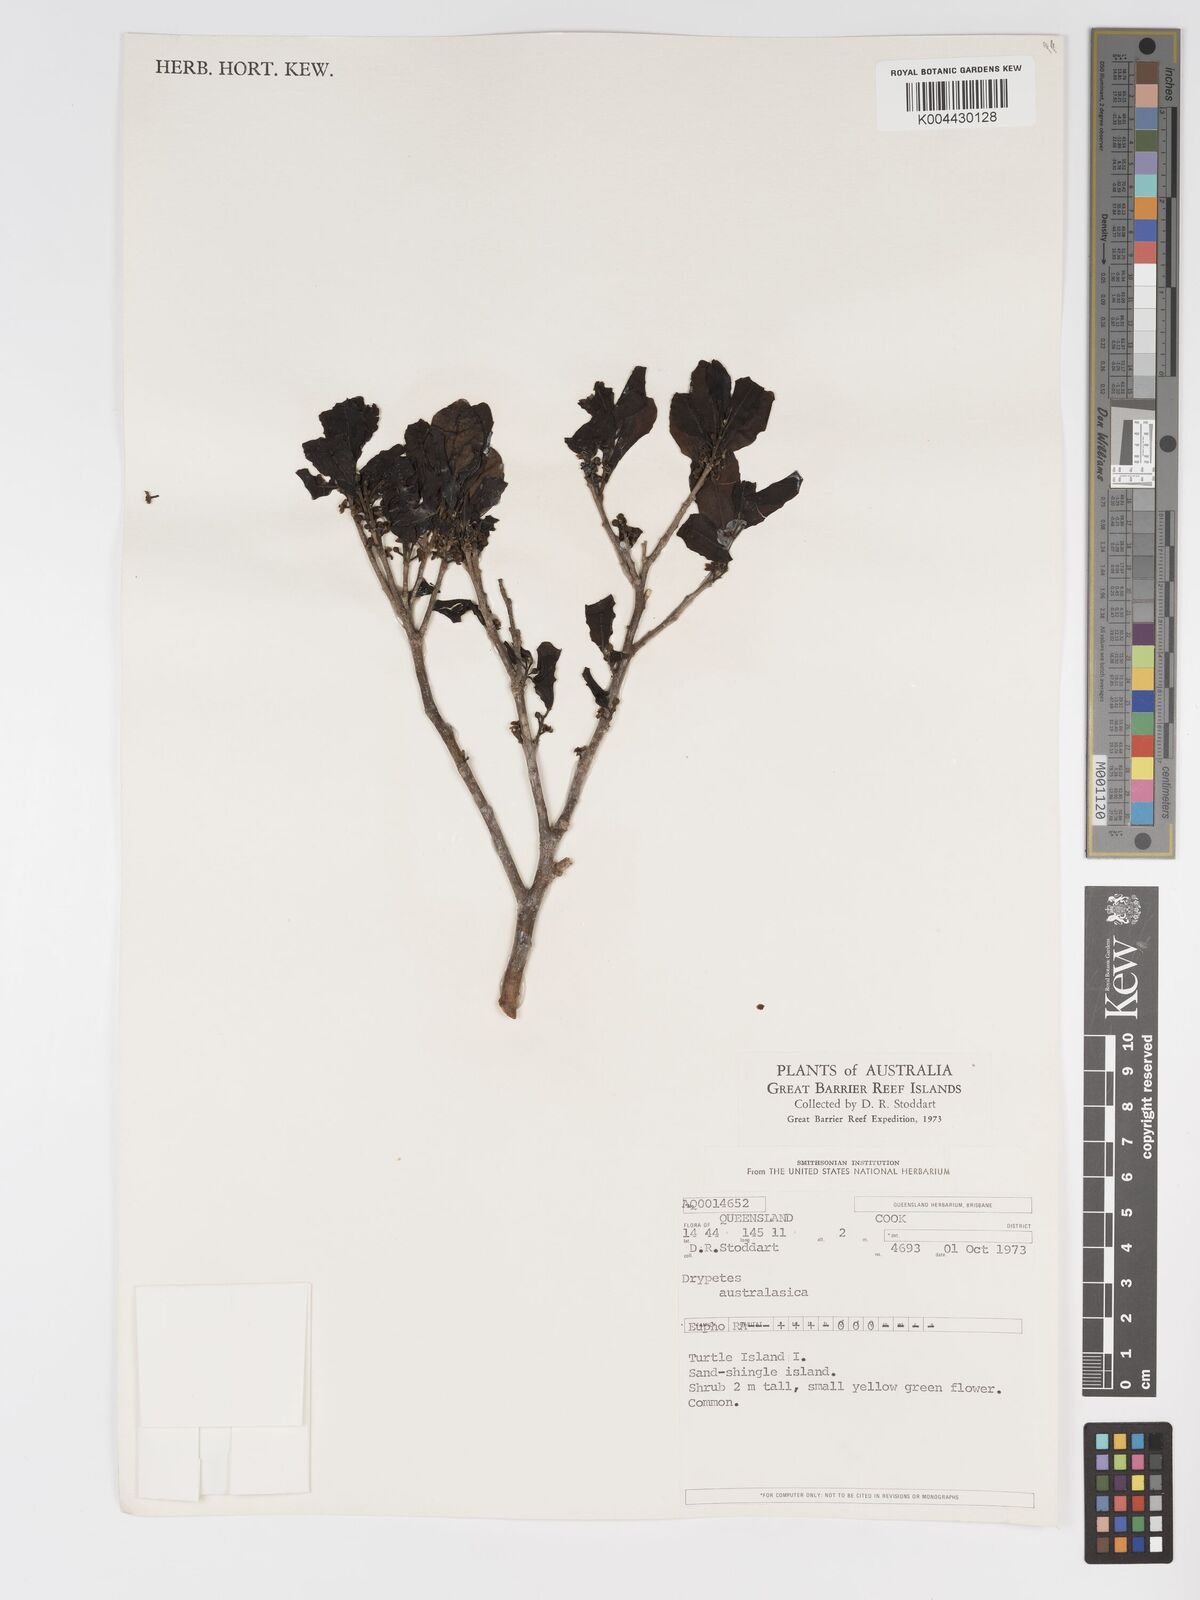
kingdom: Plantae
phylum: Tracheophyta
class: Magnoliopsida
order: Malpighiales
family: Putranjivaceae
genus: Drypetes
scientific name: Drypetes deplanchei
